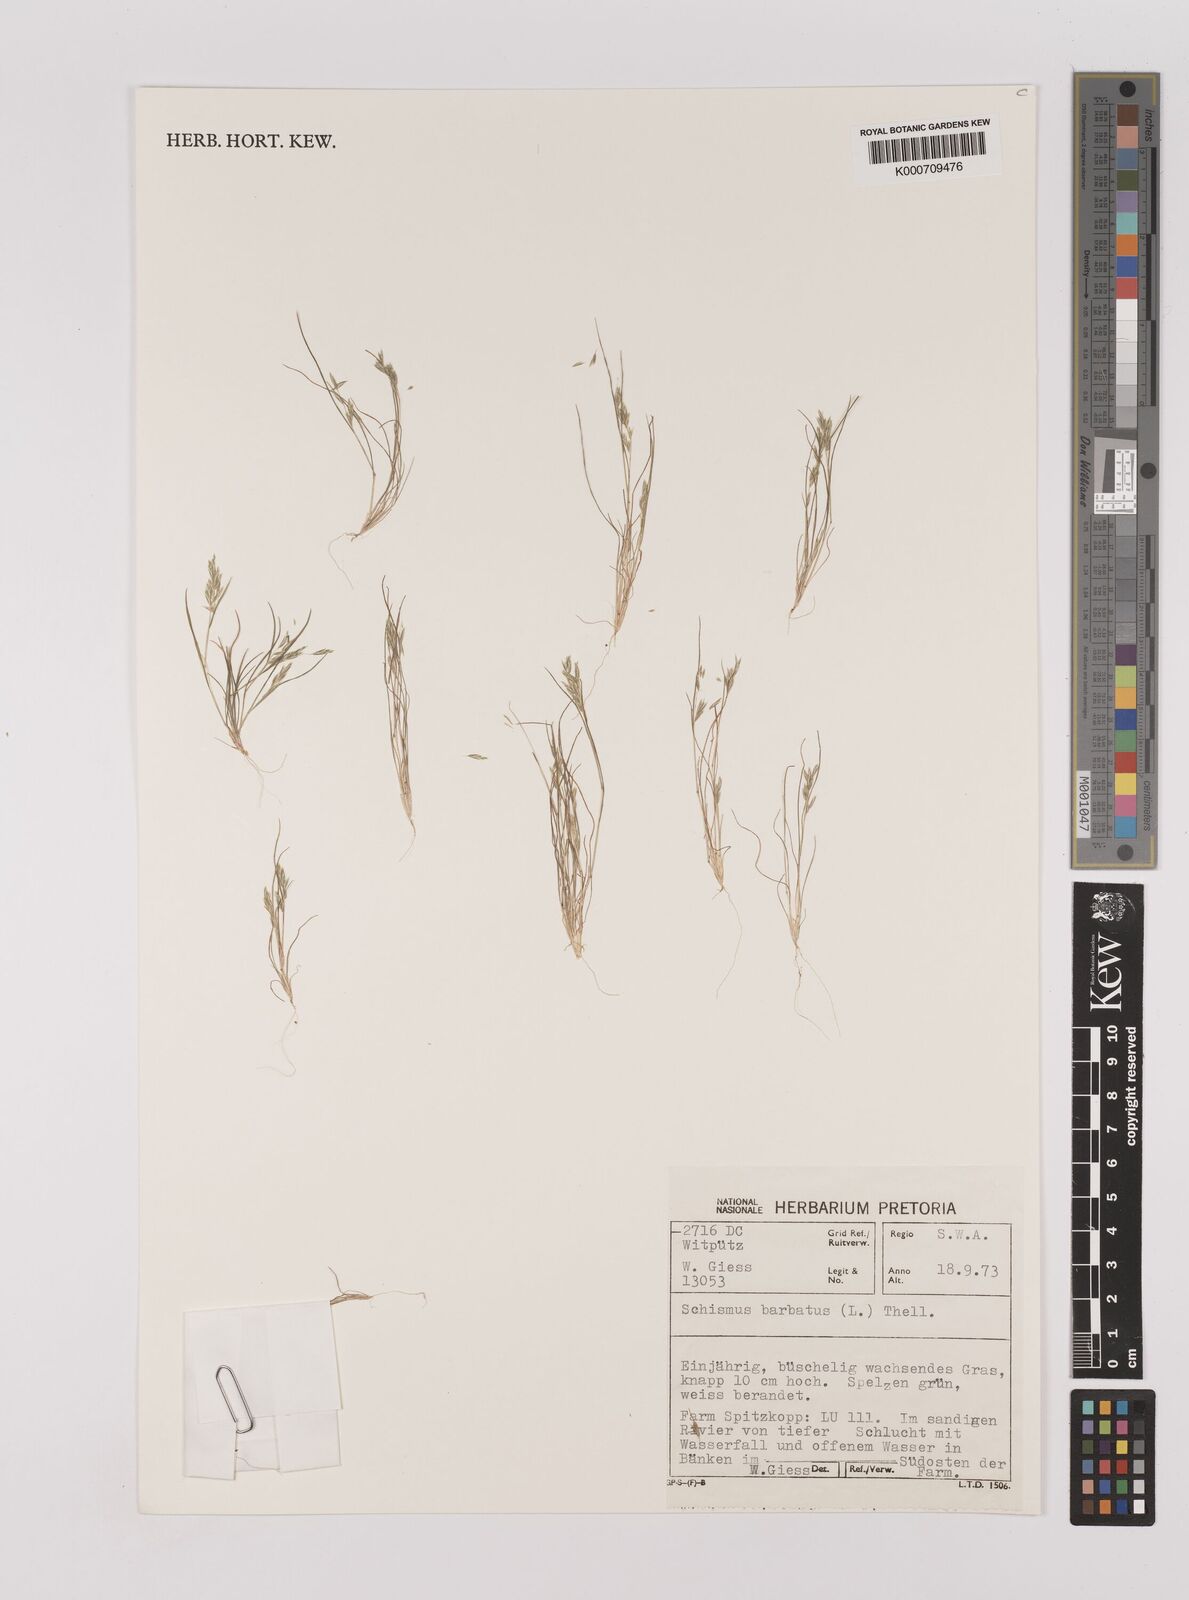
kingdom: Plantae
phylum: Tracheophyta
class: Liliopsida
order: Poales
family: Poaceae
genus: Schismus
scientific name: Schismus barbatus
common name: Kelch-grass
